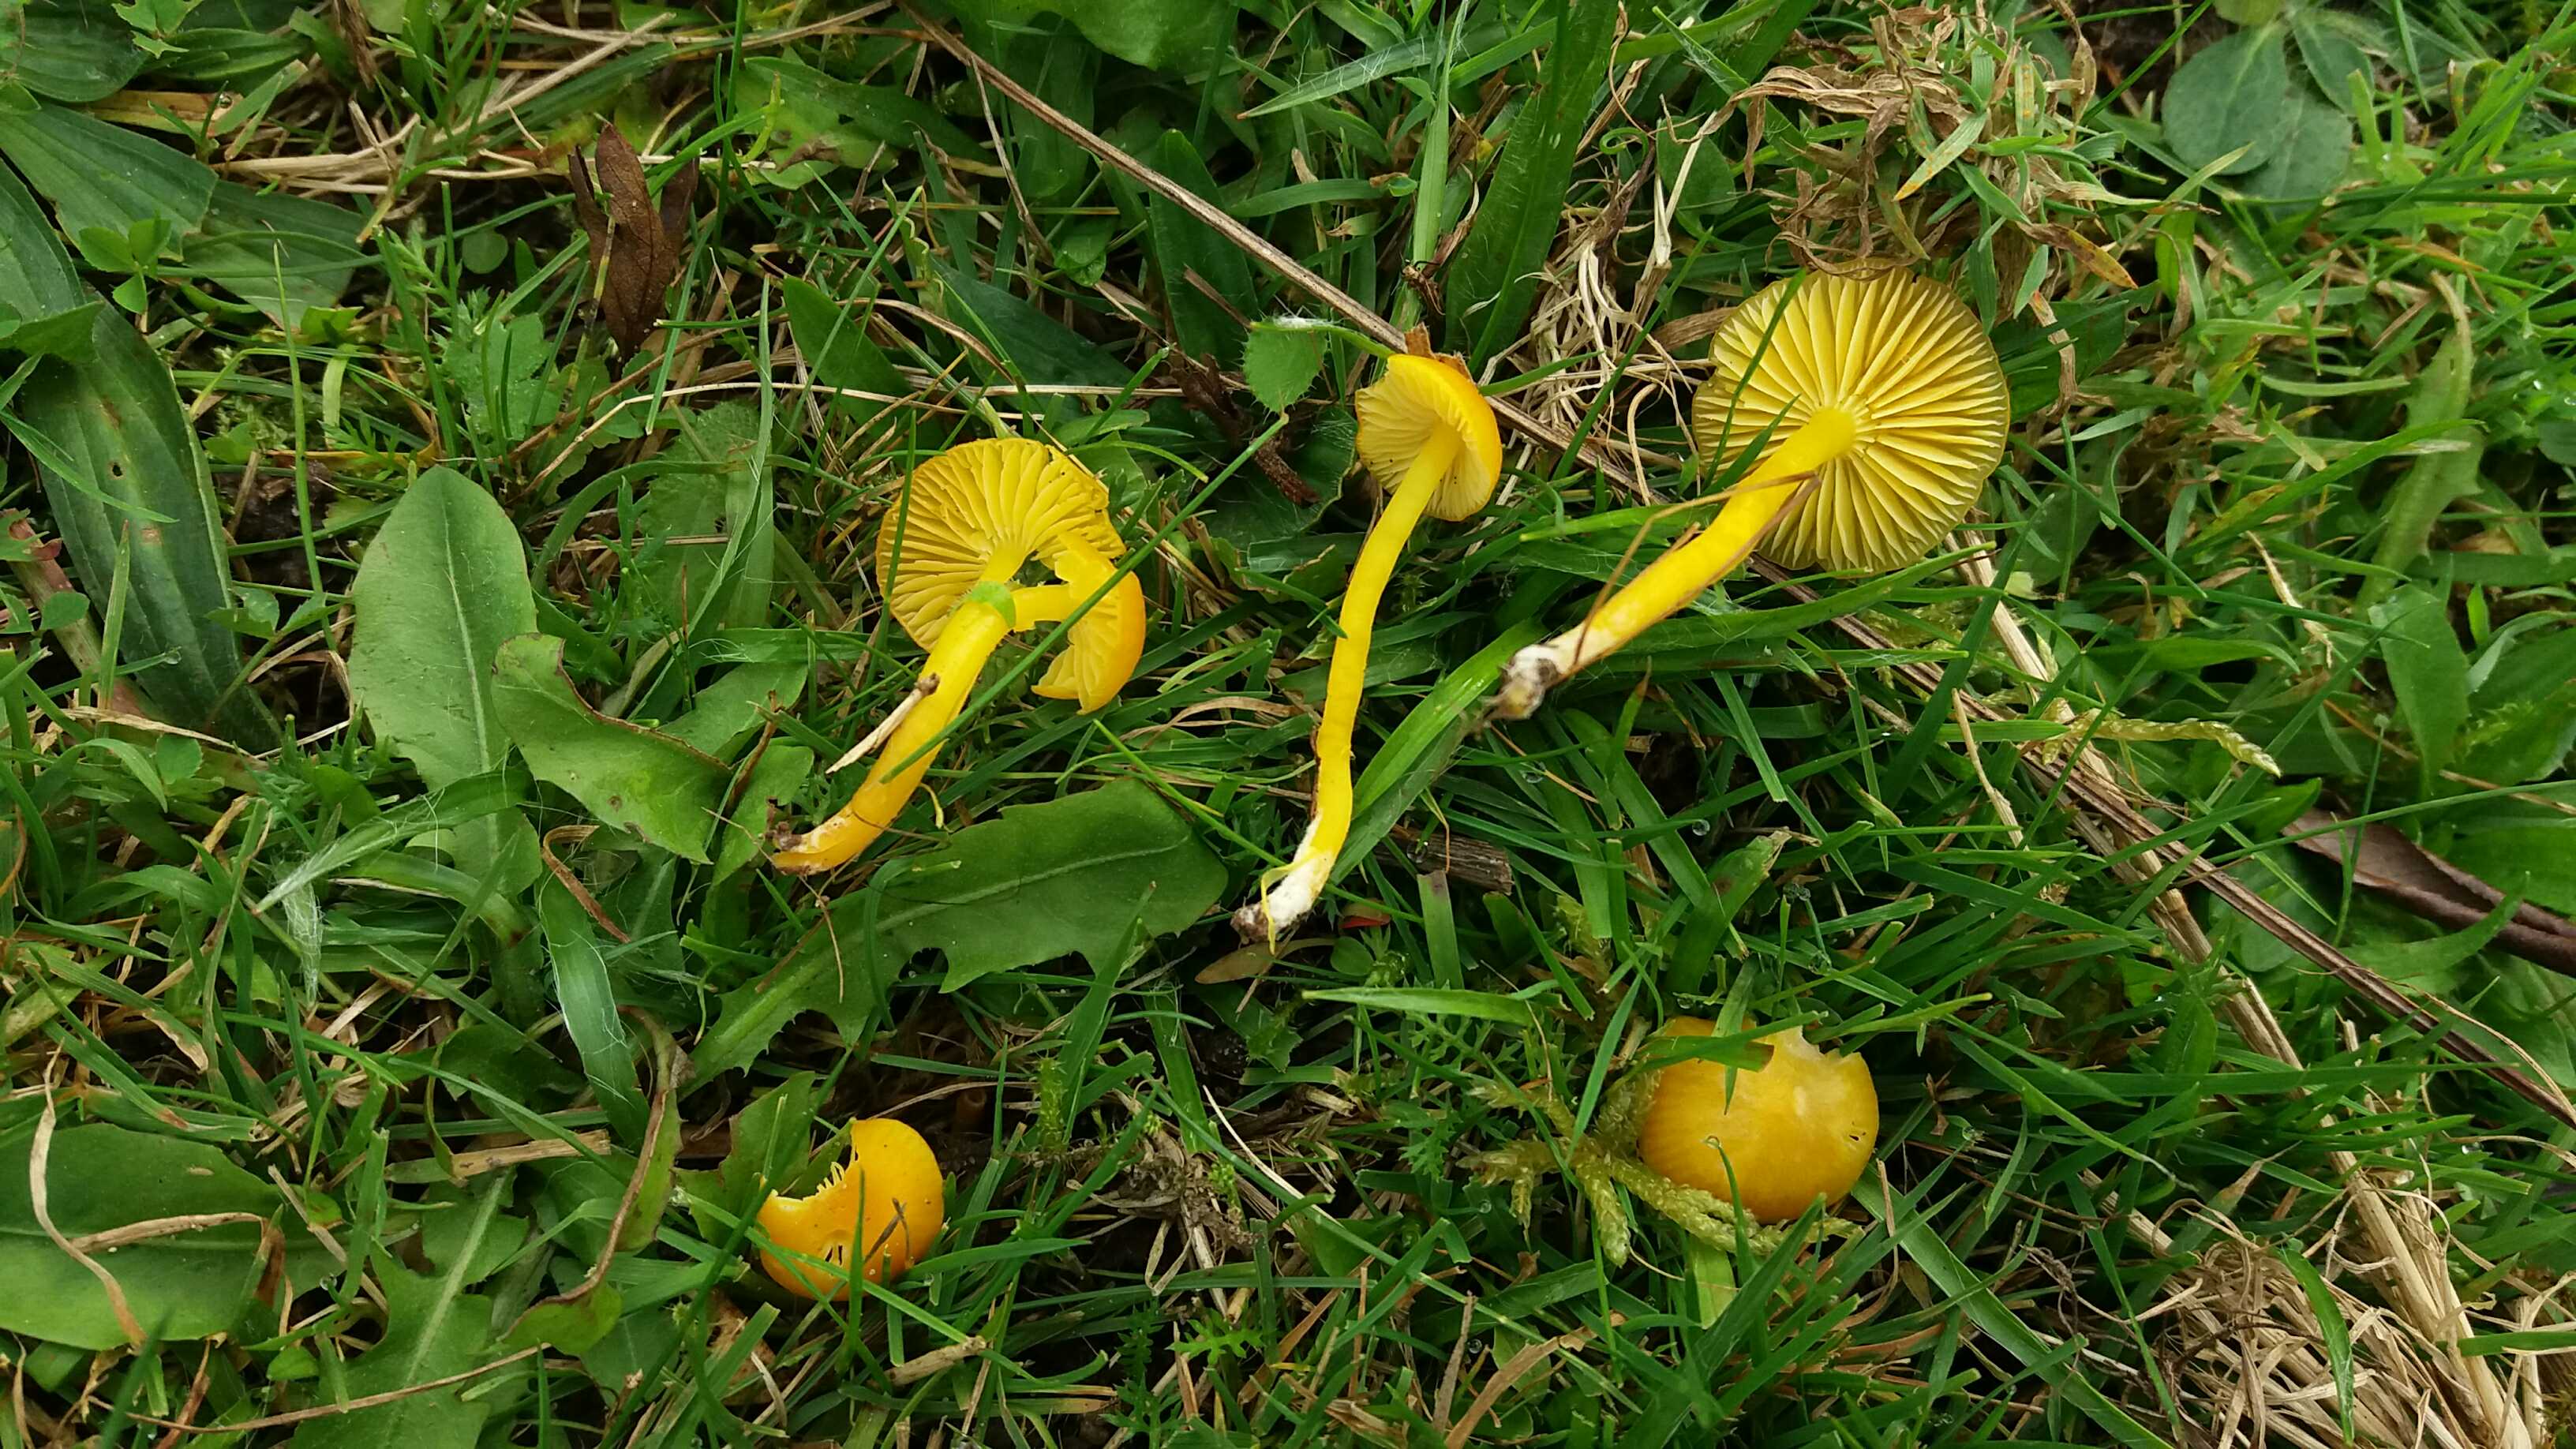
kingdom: Fungi
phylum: Basidiomycota
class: Agaricomycetes
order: Agaricales
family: Hygrophoraceae
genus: Hygrocybe
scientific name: Hygrocybe ceracea
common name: voksgul vokshat
